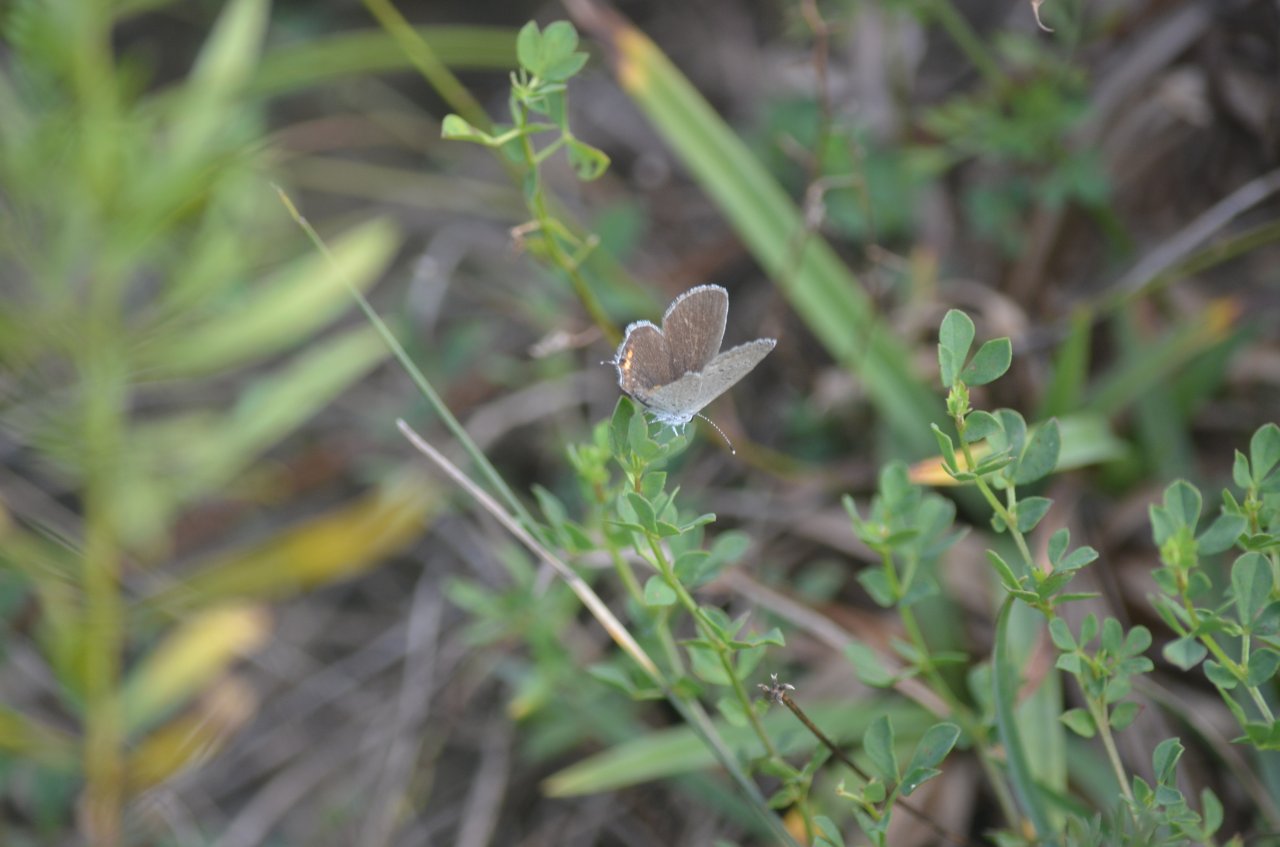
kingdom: Animalia
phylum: Arthropoda
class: Insecta
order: Lepidoptera
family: Lycaenidae
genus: Elkalyce
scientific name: Elkalyce comyntas
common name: Eastern Tailed-Blue
